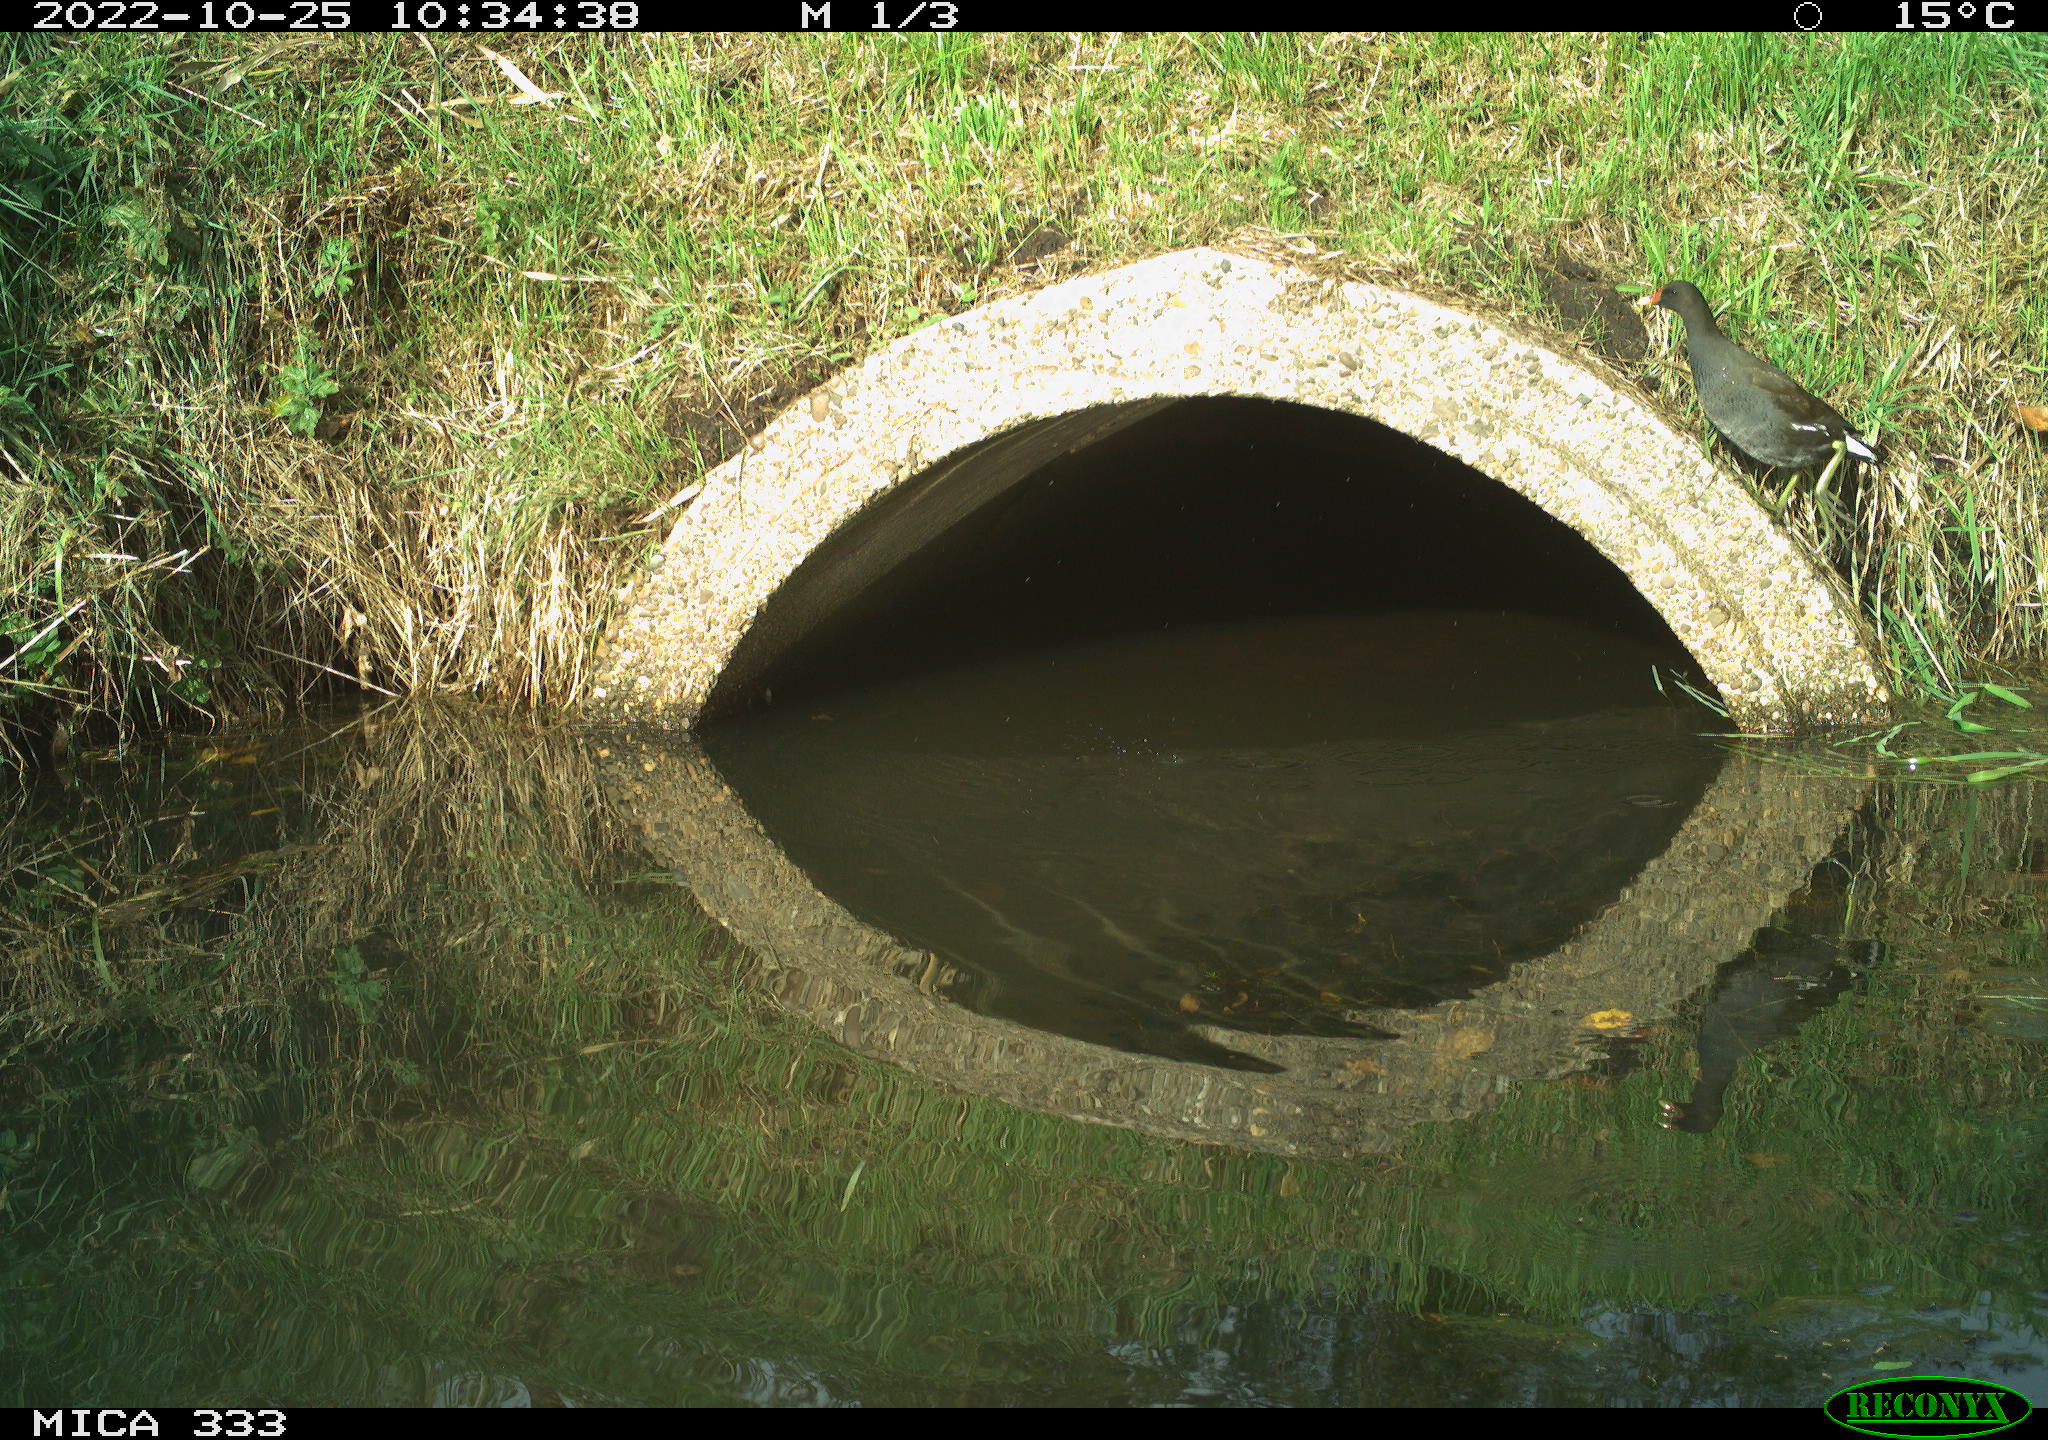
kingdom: Animalia
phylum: Chordata
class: Aves
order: Gruiformes
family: Rallidae
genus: Gallinula
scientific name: Gallinula chloropus
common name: Common moorhen
